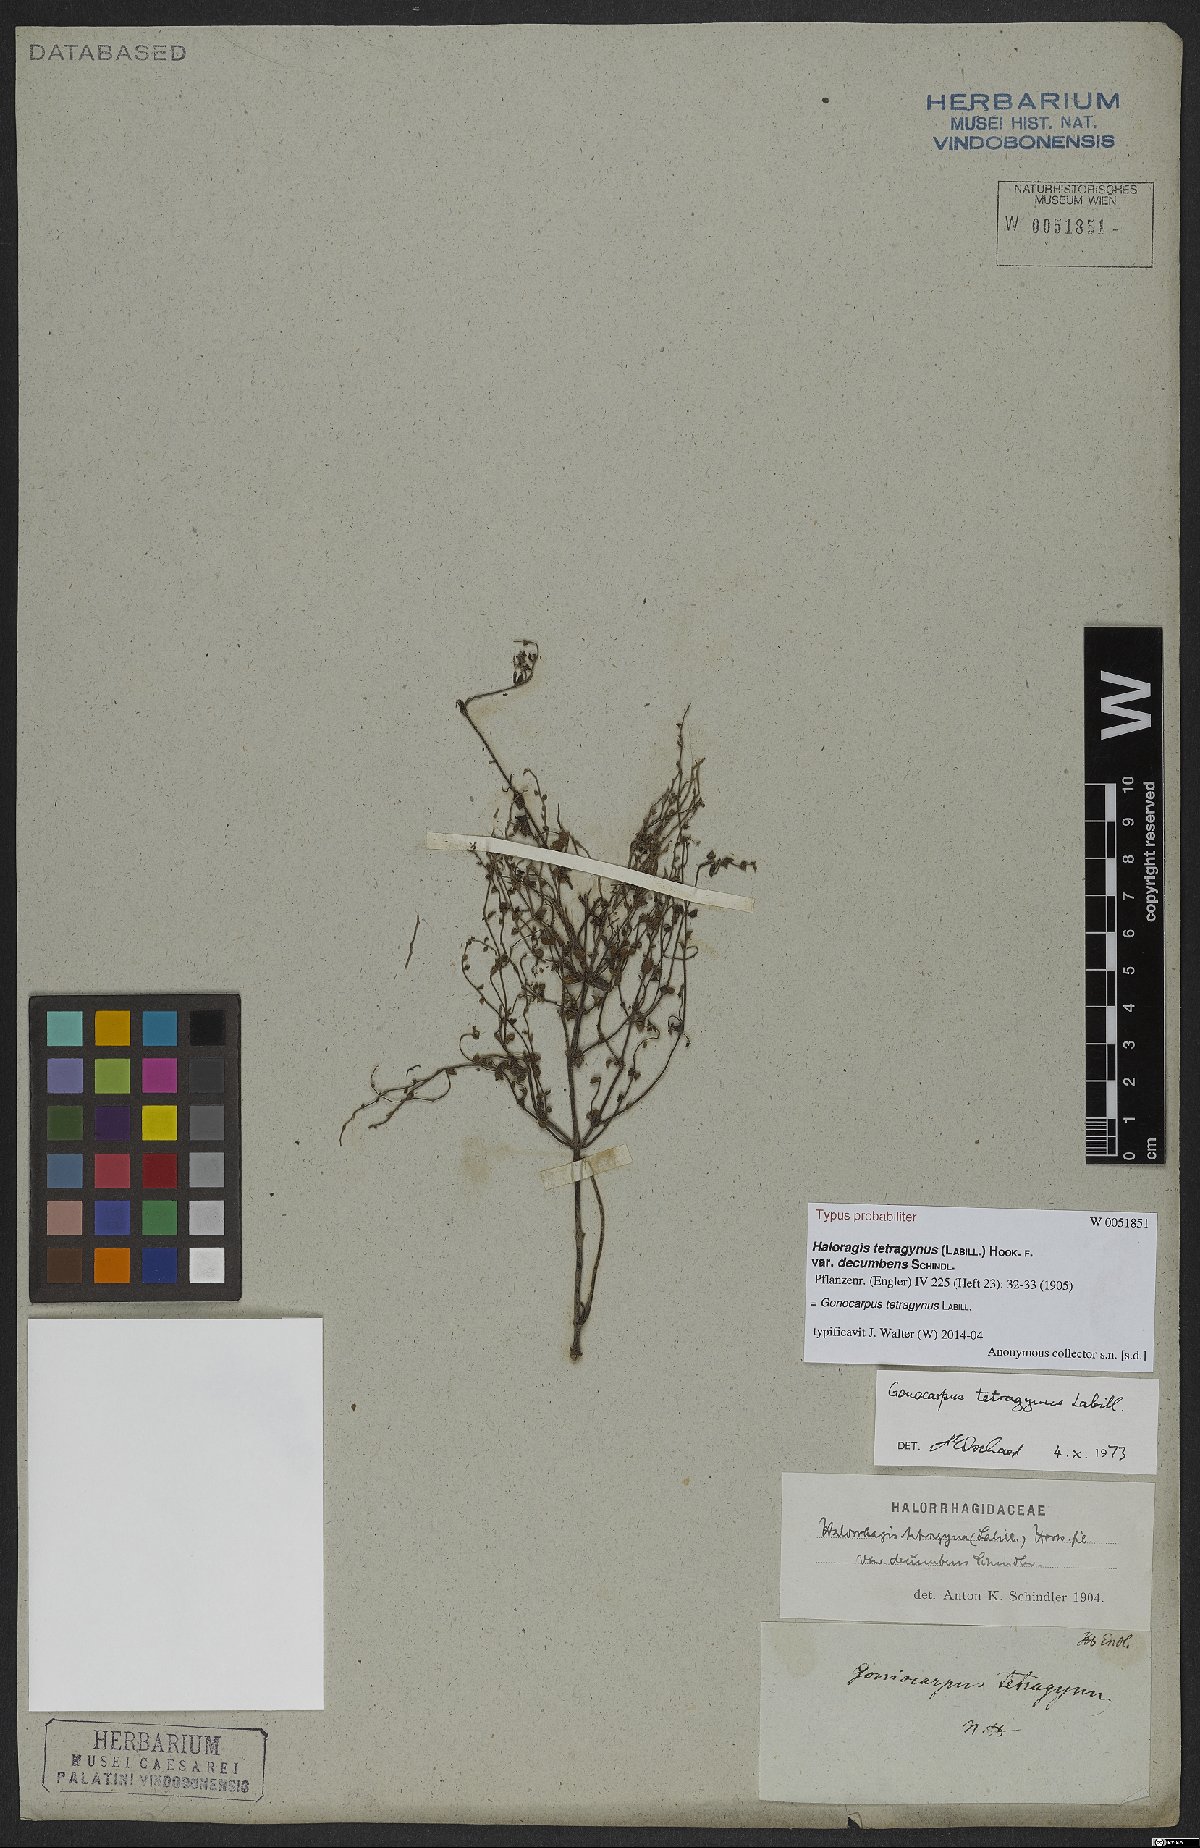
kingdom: Plantae
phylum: Tracheophyta
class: Magnoliopsida
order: Saxifragales
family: Haloragaceae
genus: Gonocarpus
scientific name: Gonocarpus tetragynus
